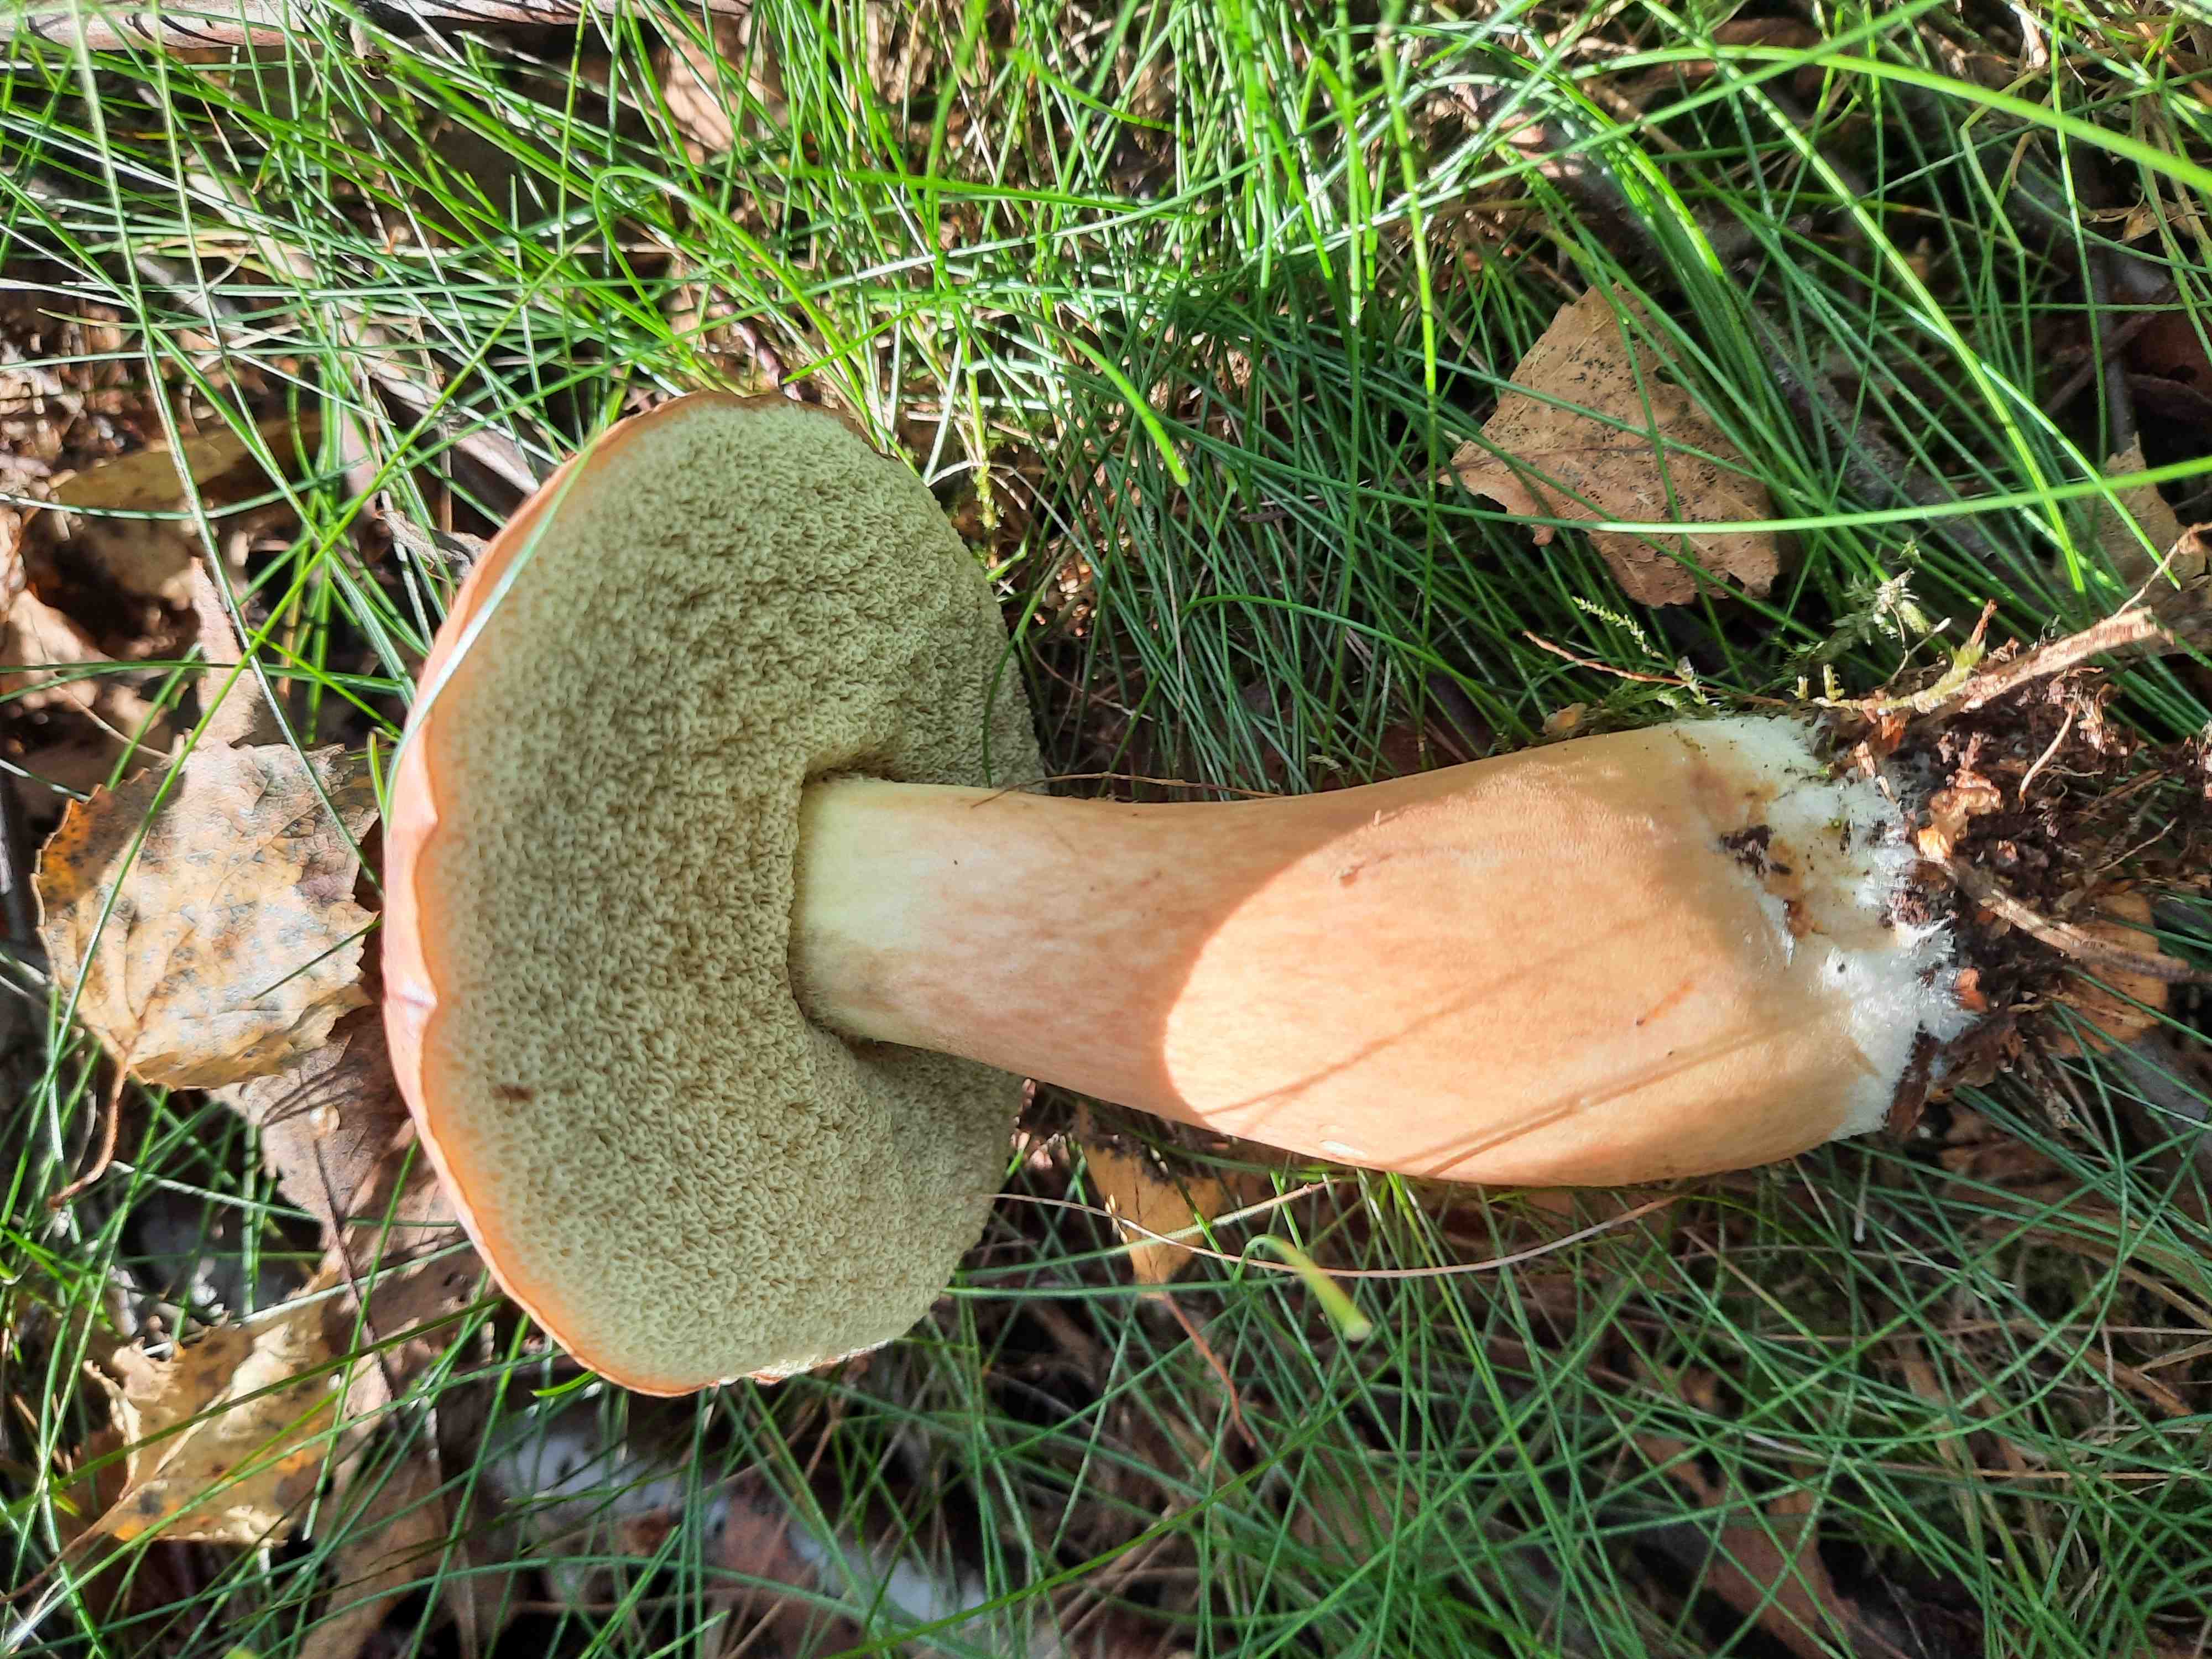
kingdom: Fungi
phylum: Basidiomycota
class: Agaricomycetes
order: Boletales
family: Boletaceae
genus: Imleria
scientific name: Imleria badia
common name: brunstokket rørhat
